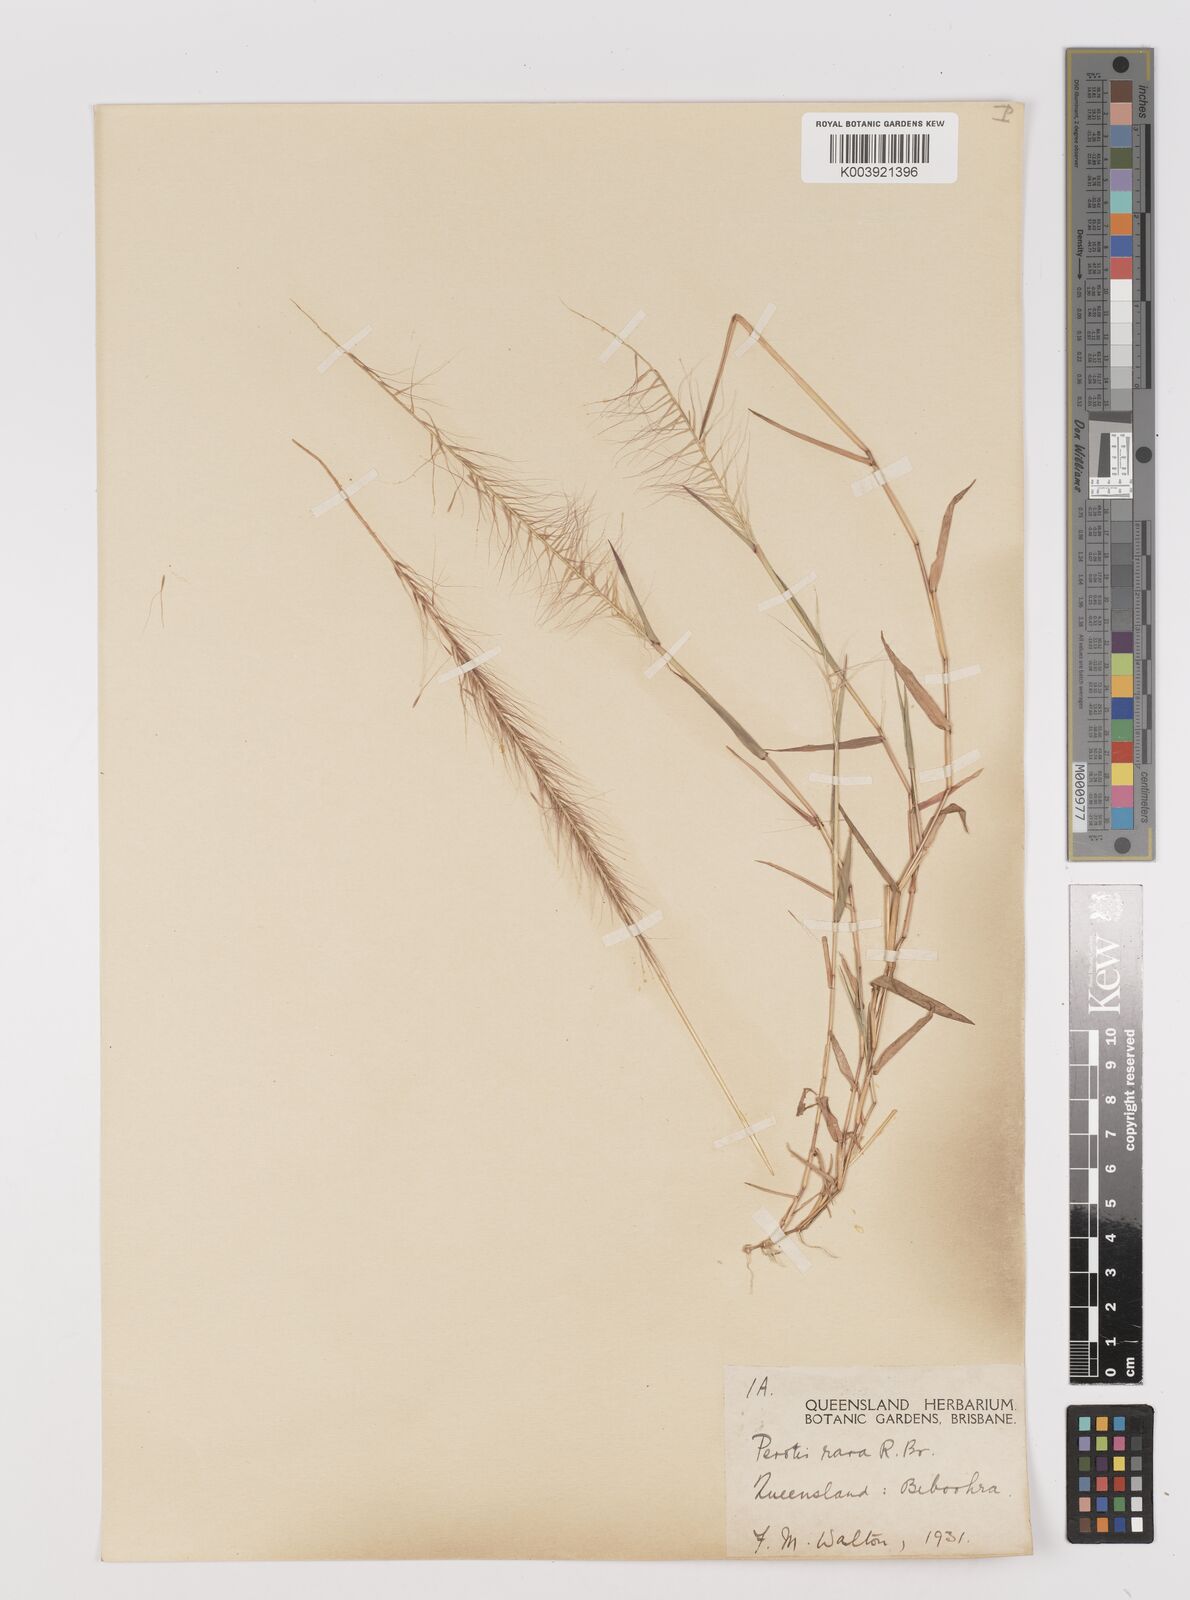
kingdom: Plantae
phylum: Tracheophyta
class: Liliopsida
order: Poales
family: Poaceae
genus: Perotis
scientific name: Perotis rara
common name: Comet grass
